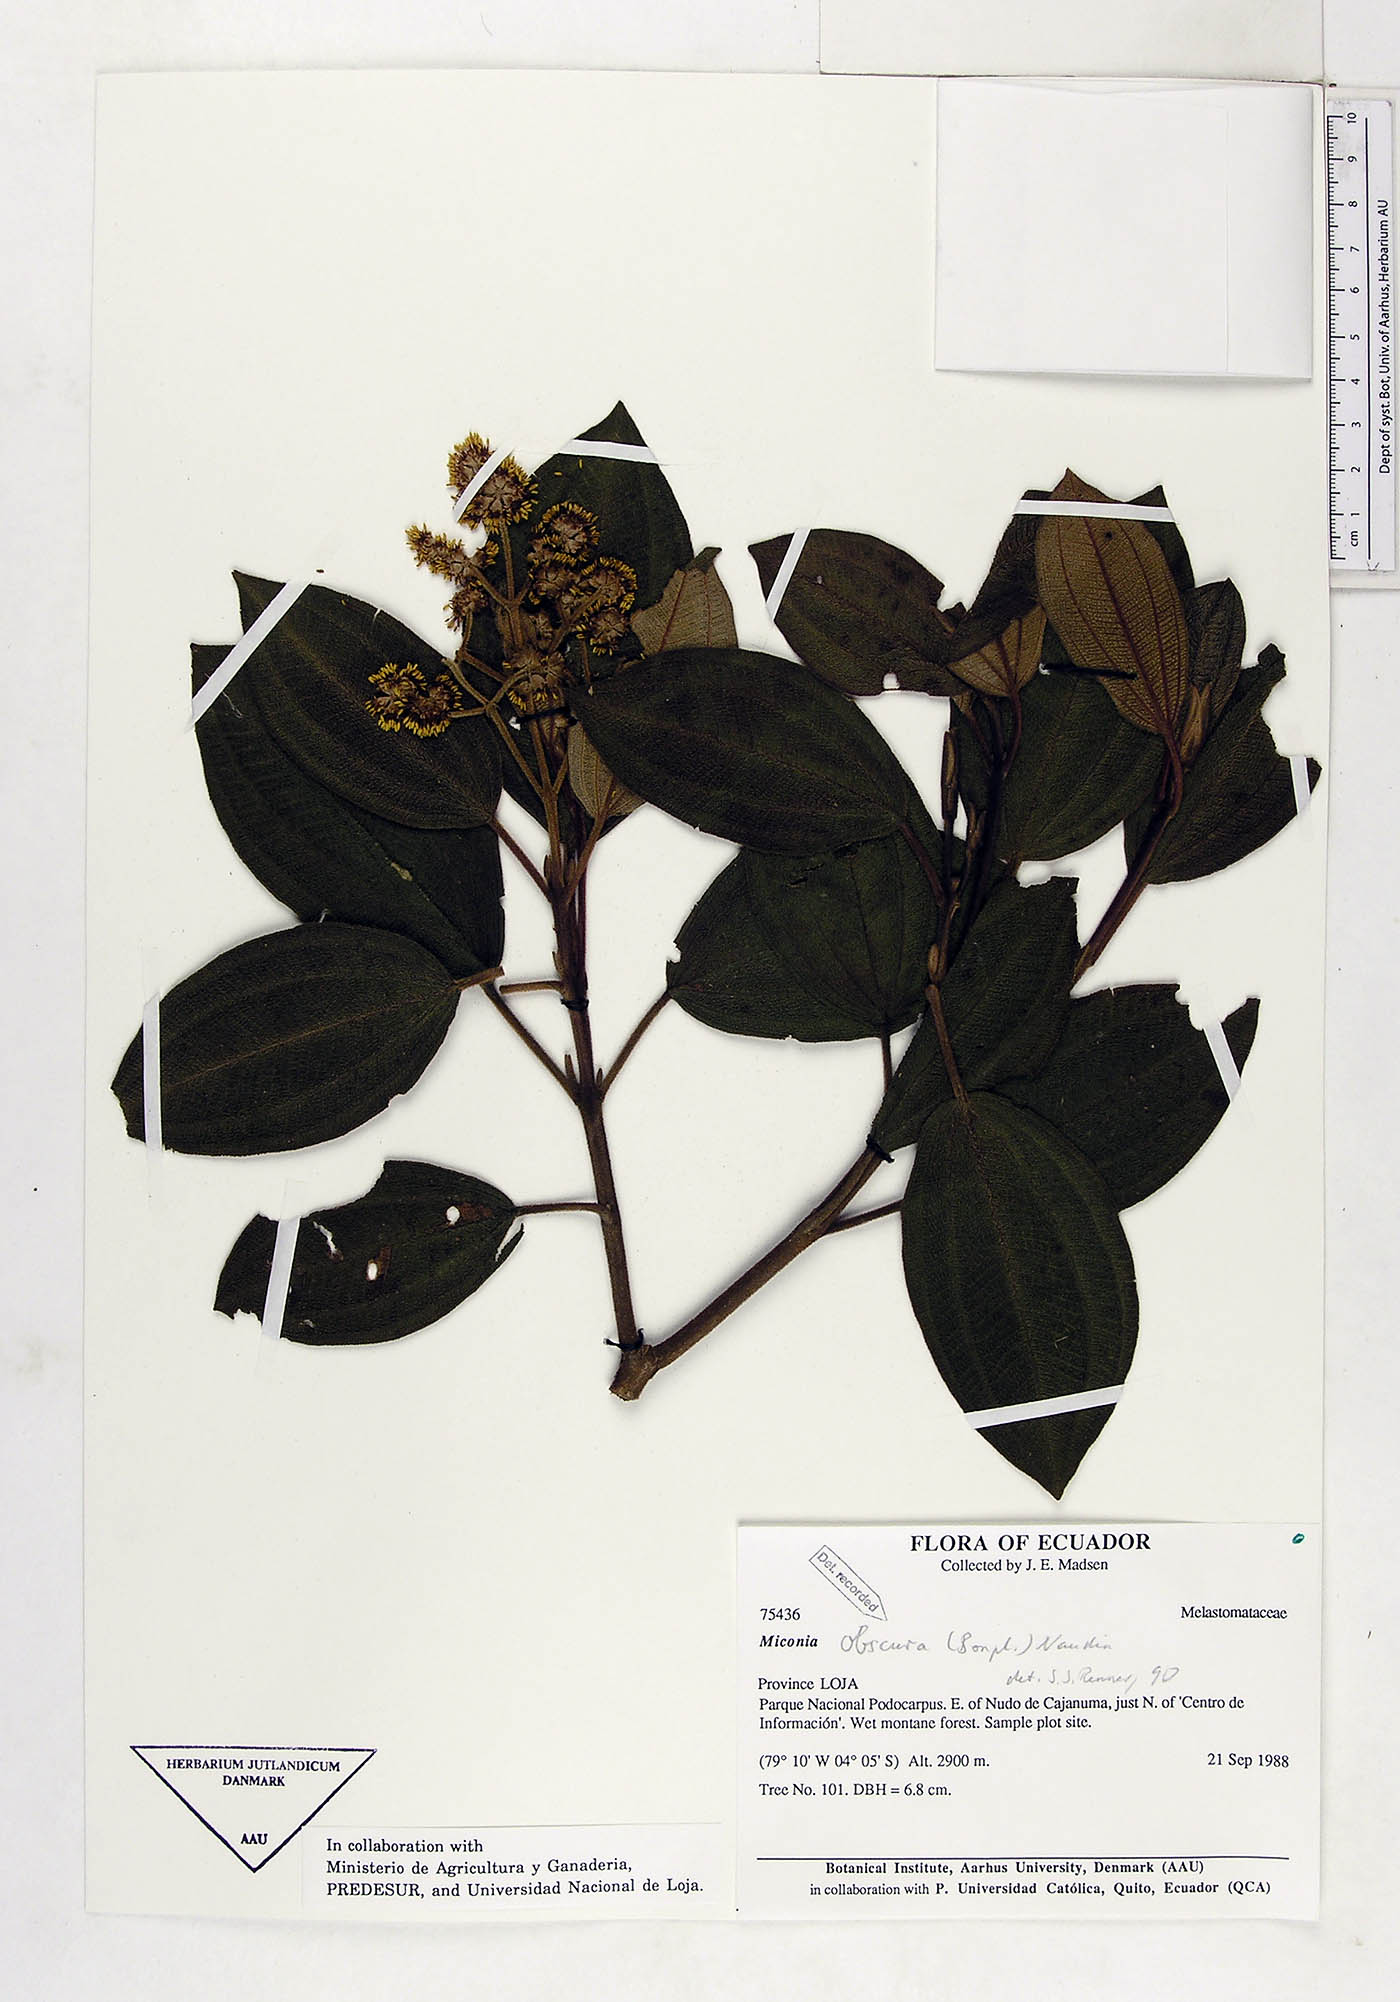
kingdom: Plantae
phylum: Tracheophyta
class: Magnoliopsida
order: Myrtales
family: Melastomataceae
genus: Miconia
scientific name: Miconia obscura
